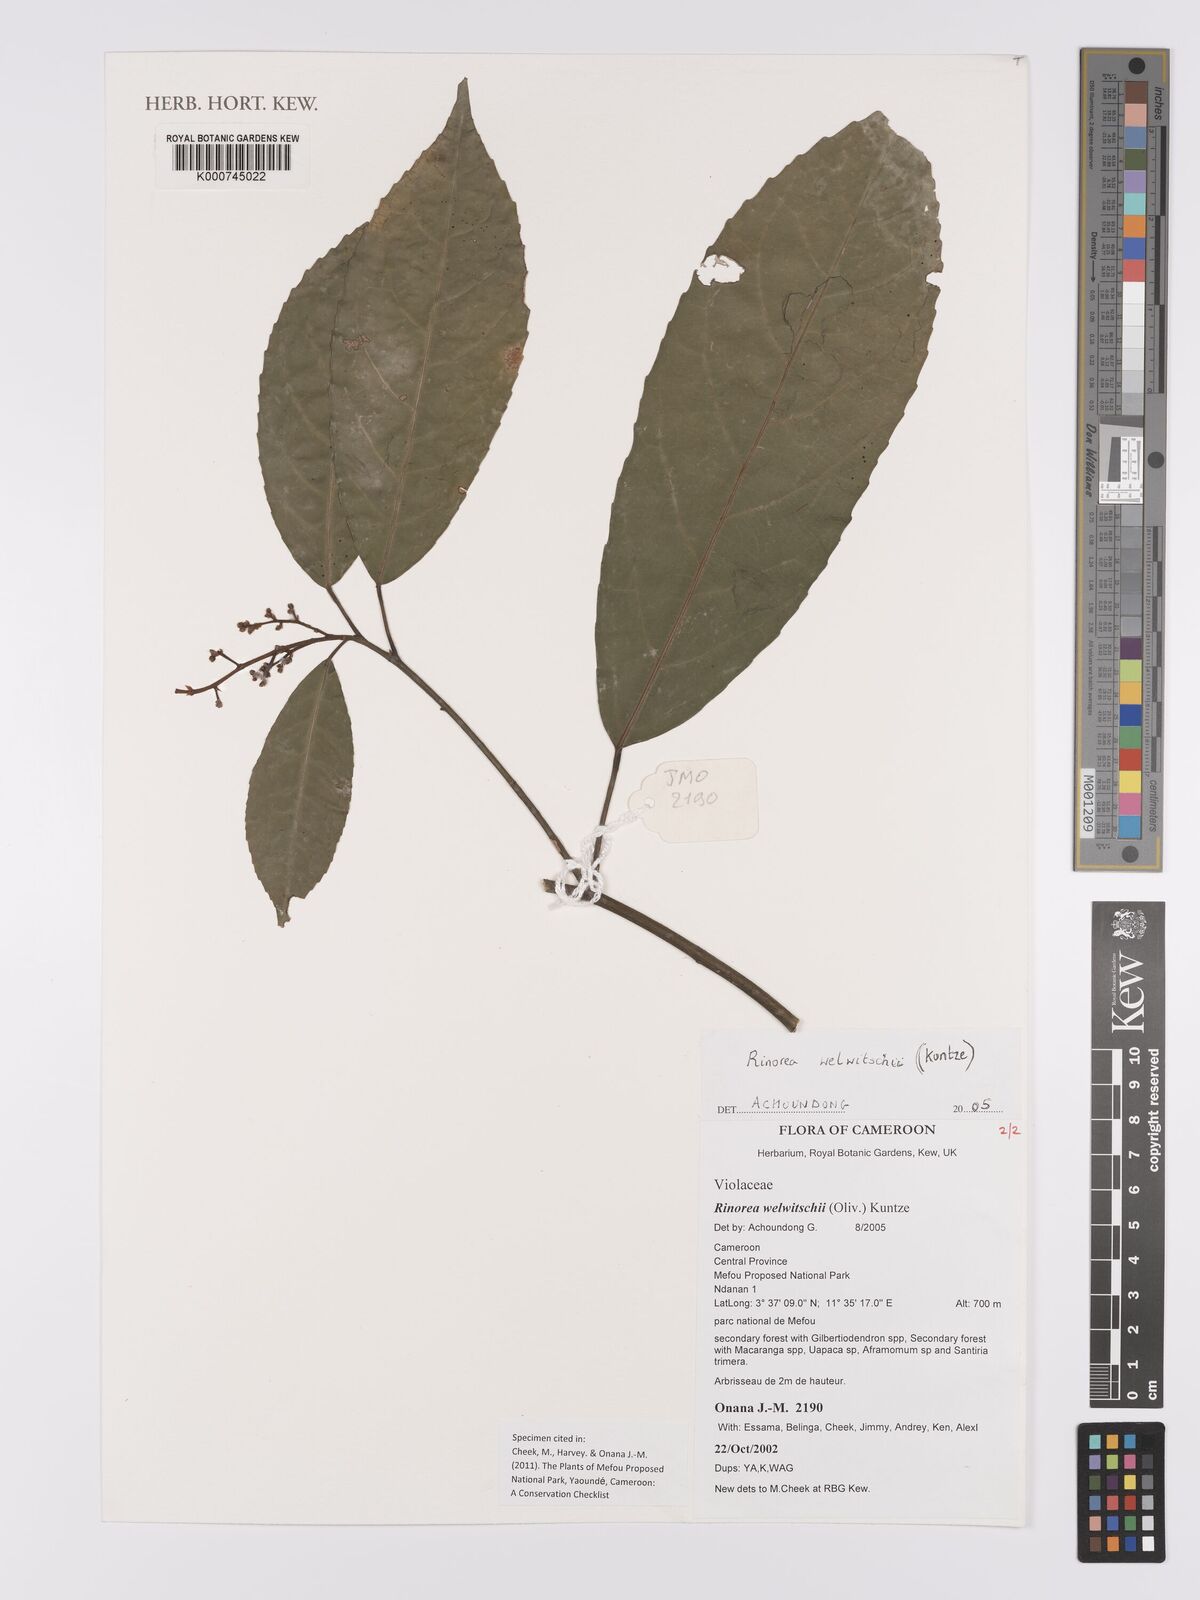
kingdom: Plantae
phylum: Tracheophyta
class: Magnoliopsida
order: Malpighiales
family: Violaceae
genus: Rinorea
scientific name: Rinorea welwitschii
